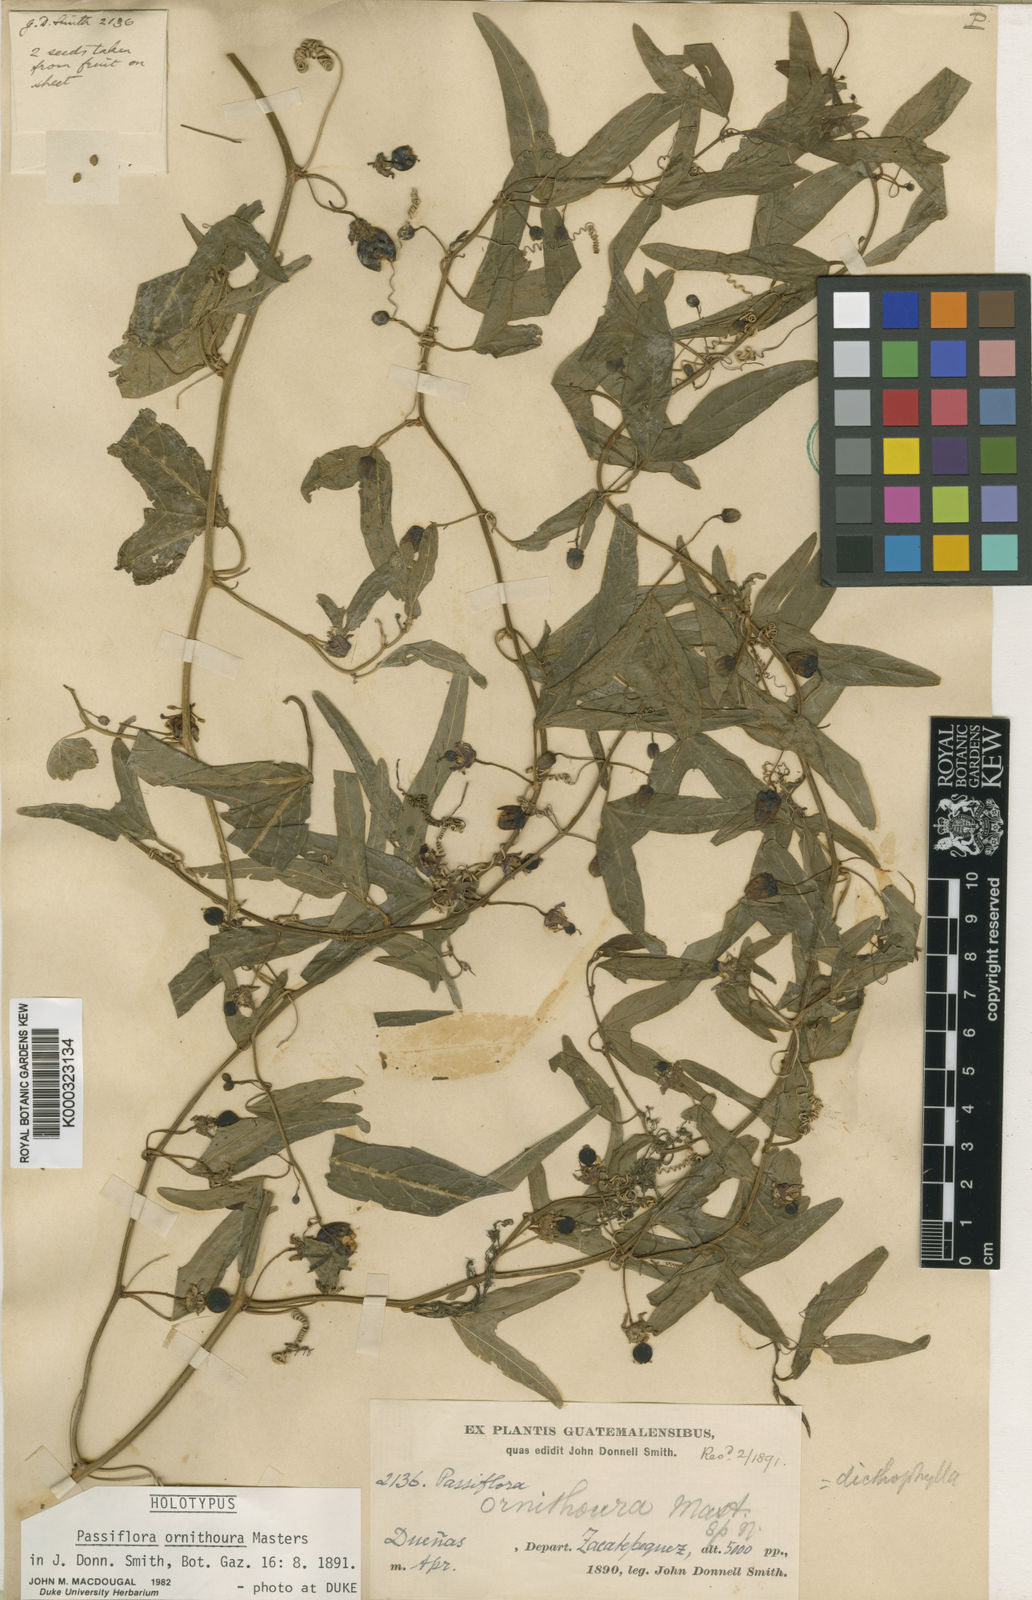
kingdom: Plantae
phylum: Tracheophyta
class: Magnoliopsida
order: Malpighiales
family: Passifloraceae
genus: Passiflora
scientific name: Passiflora ornithoura
